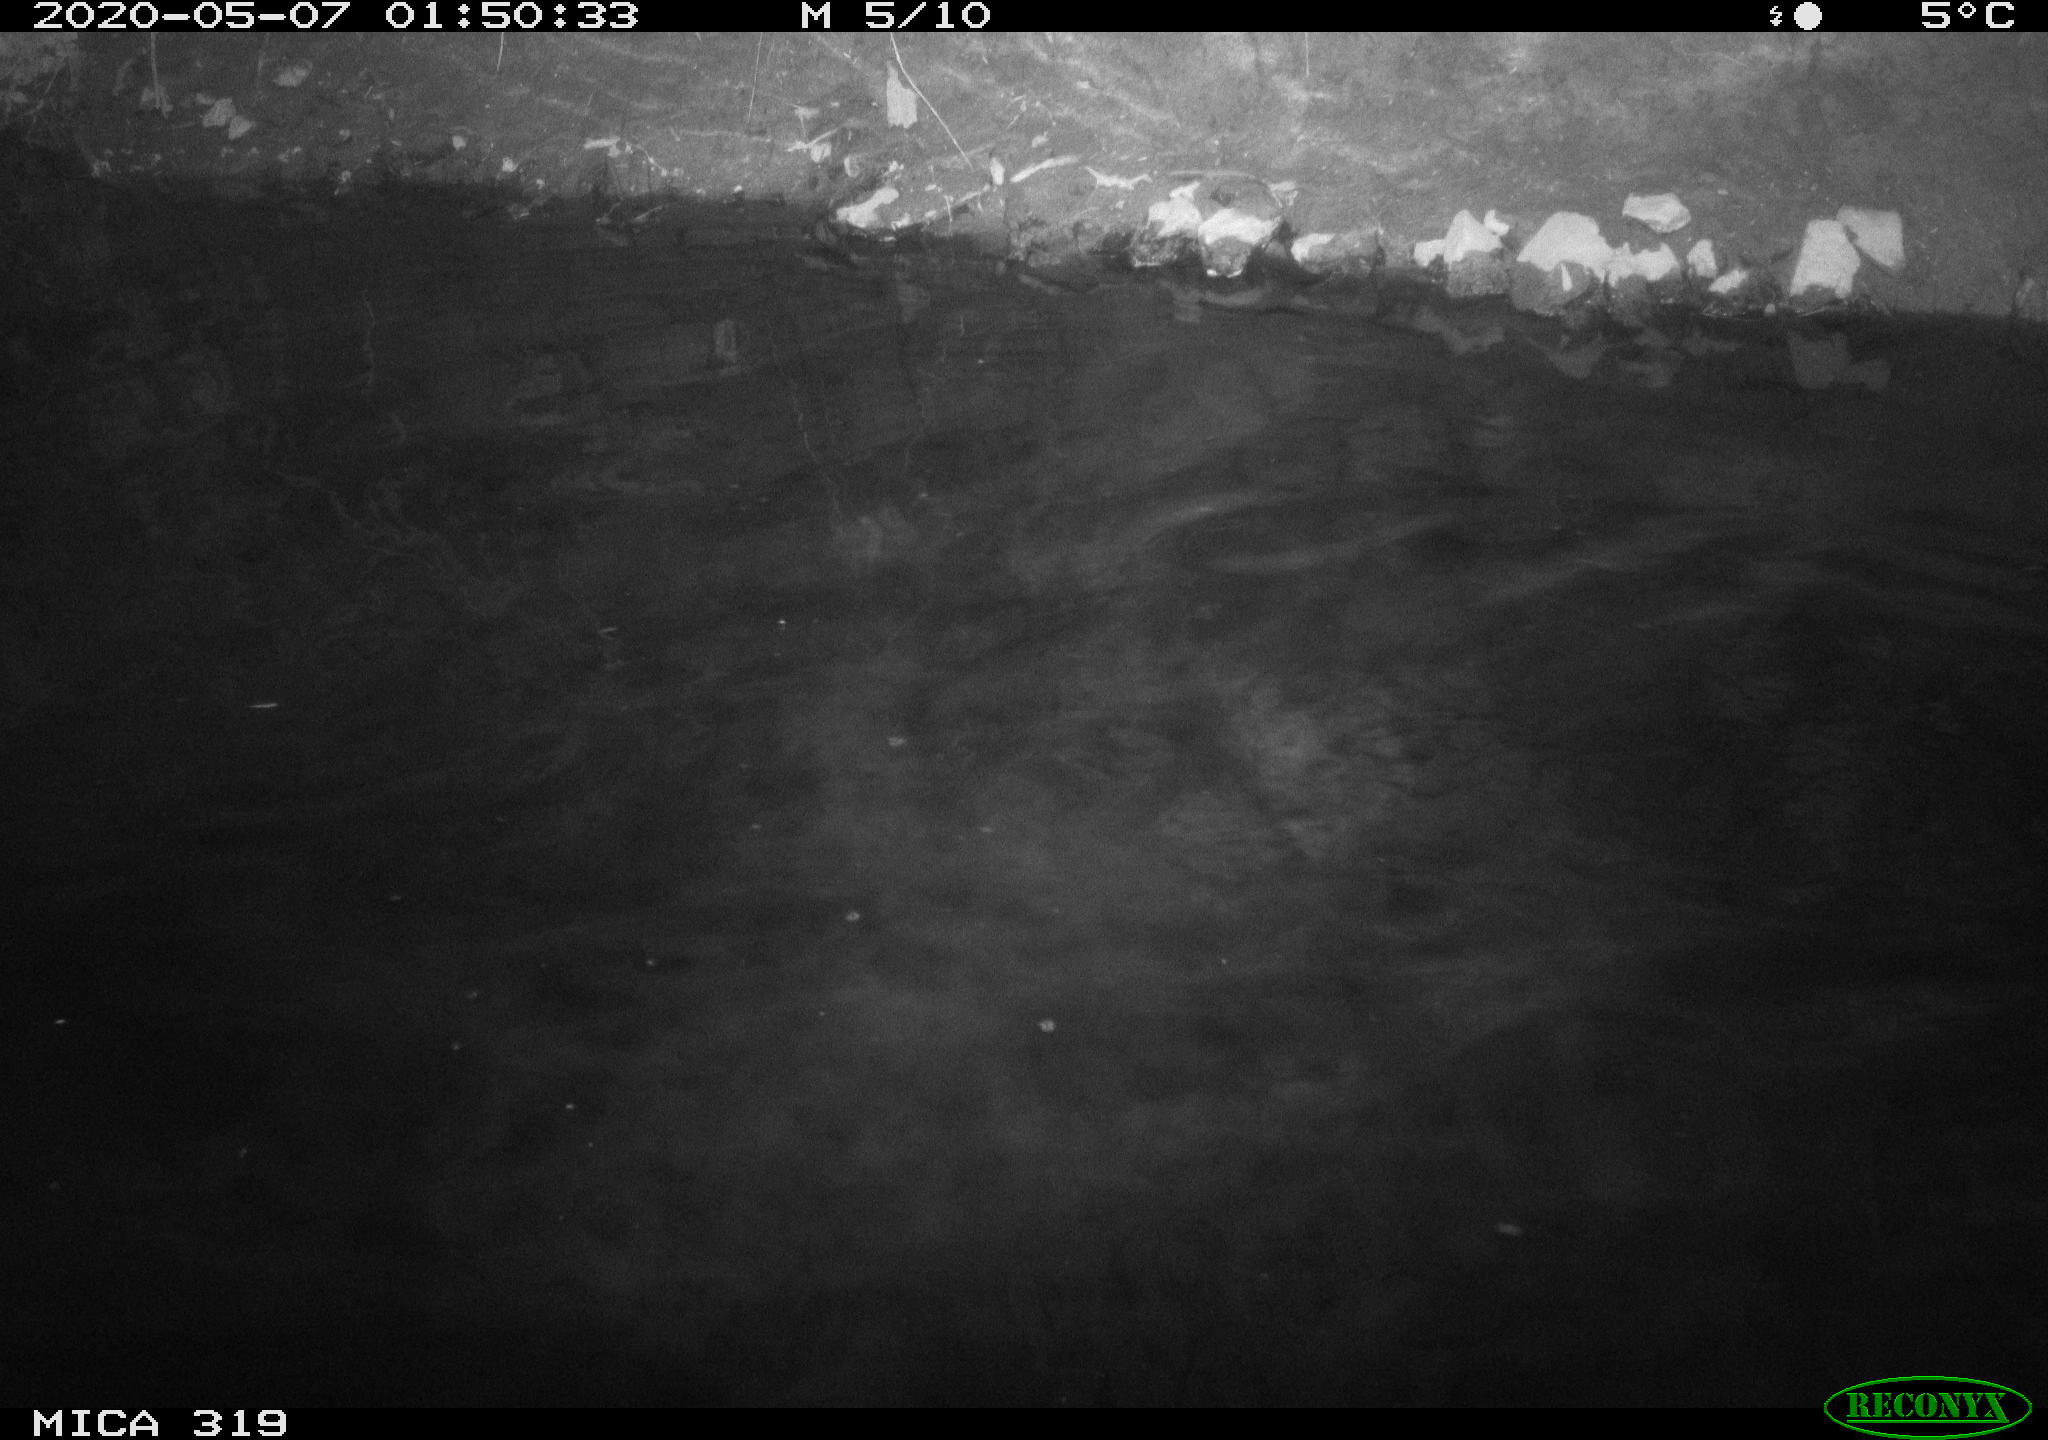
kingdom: Animalia
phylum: Chordata
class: Aves
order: Anseriformes
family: Anatidae
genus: Anas
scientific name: Anas platyrhynchos
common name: Mallard
